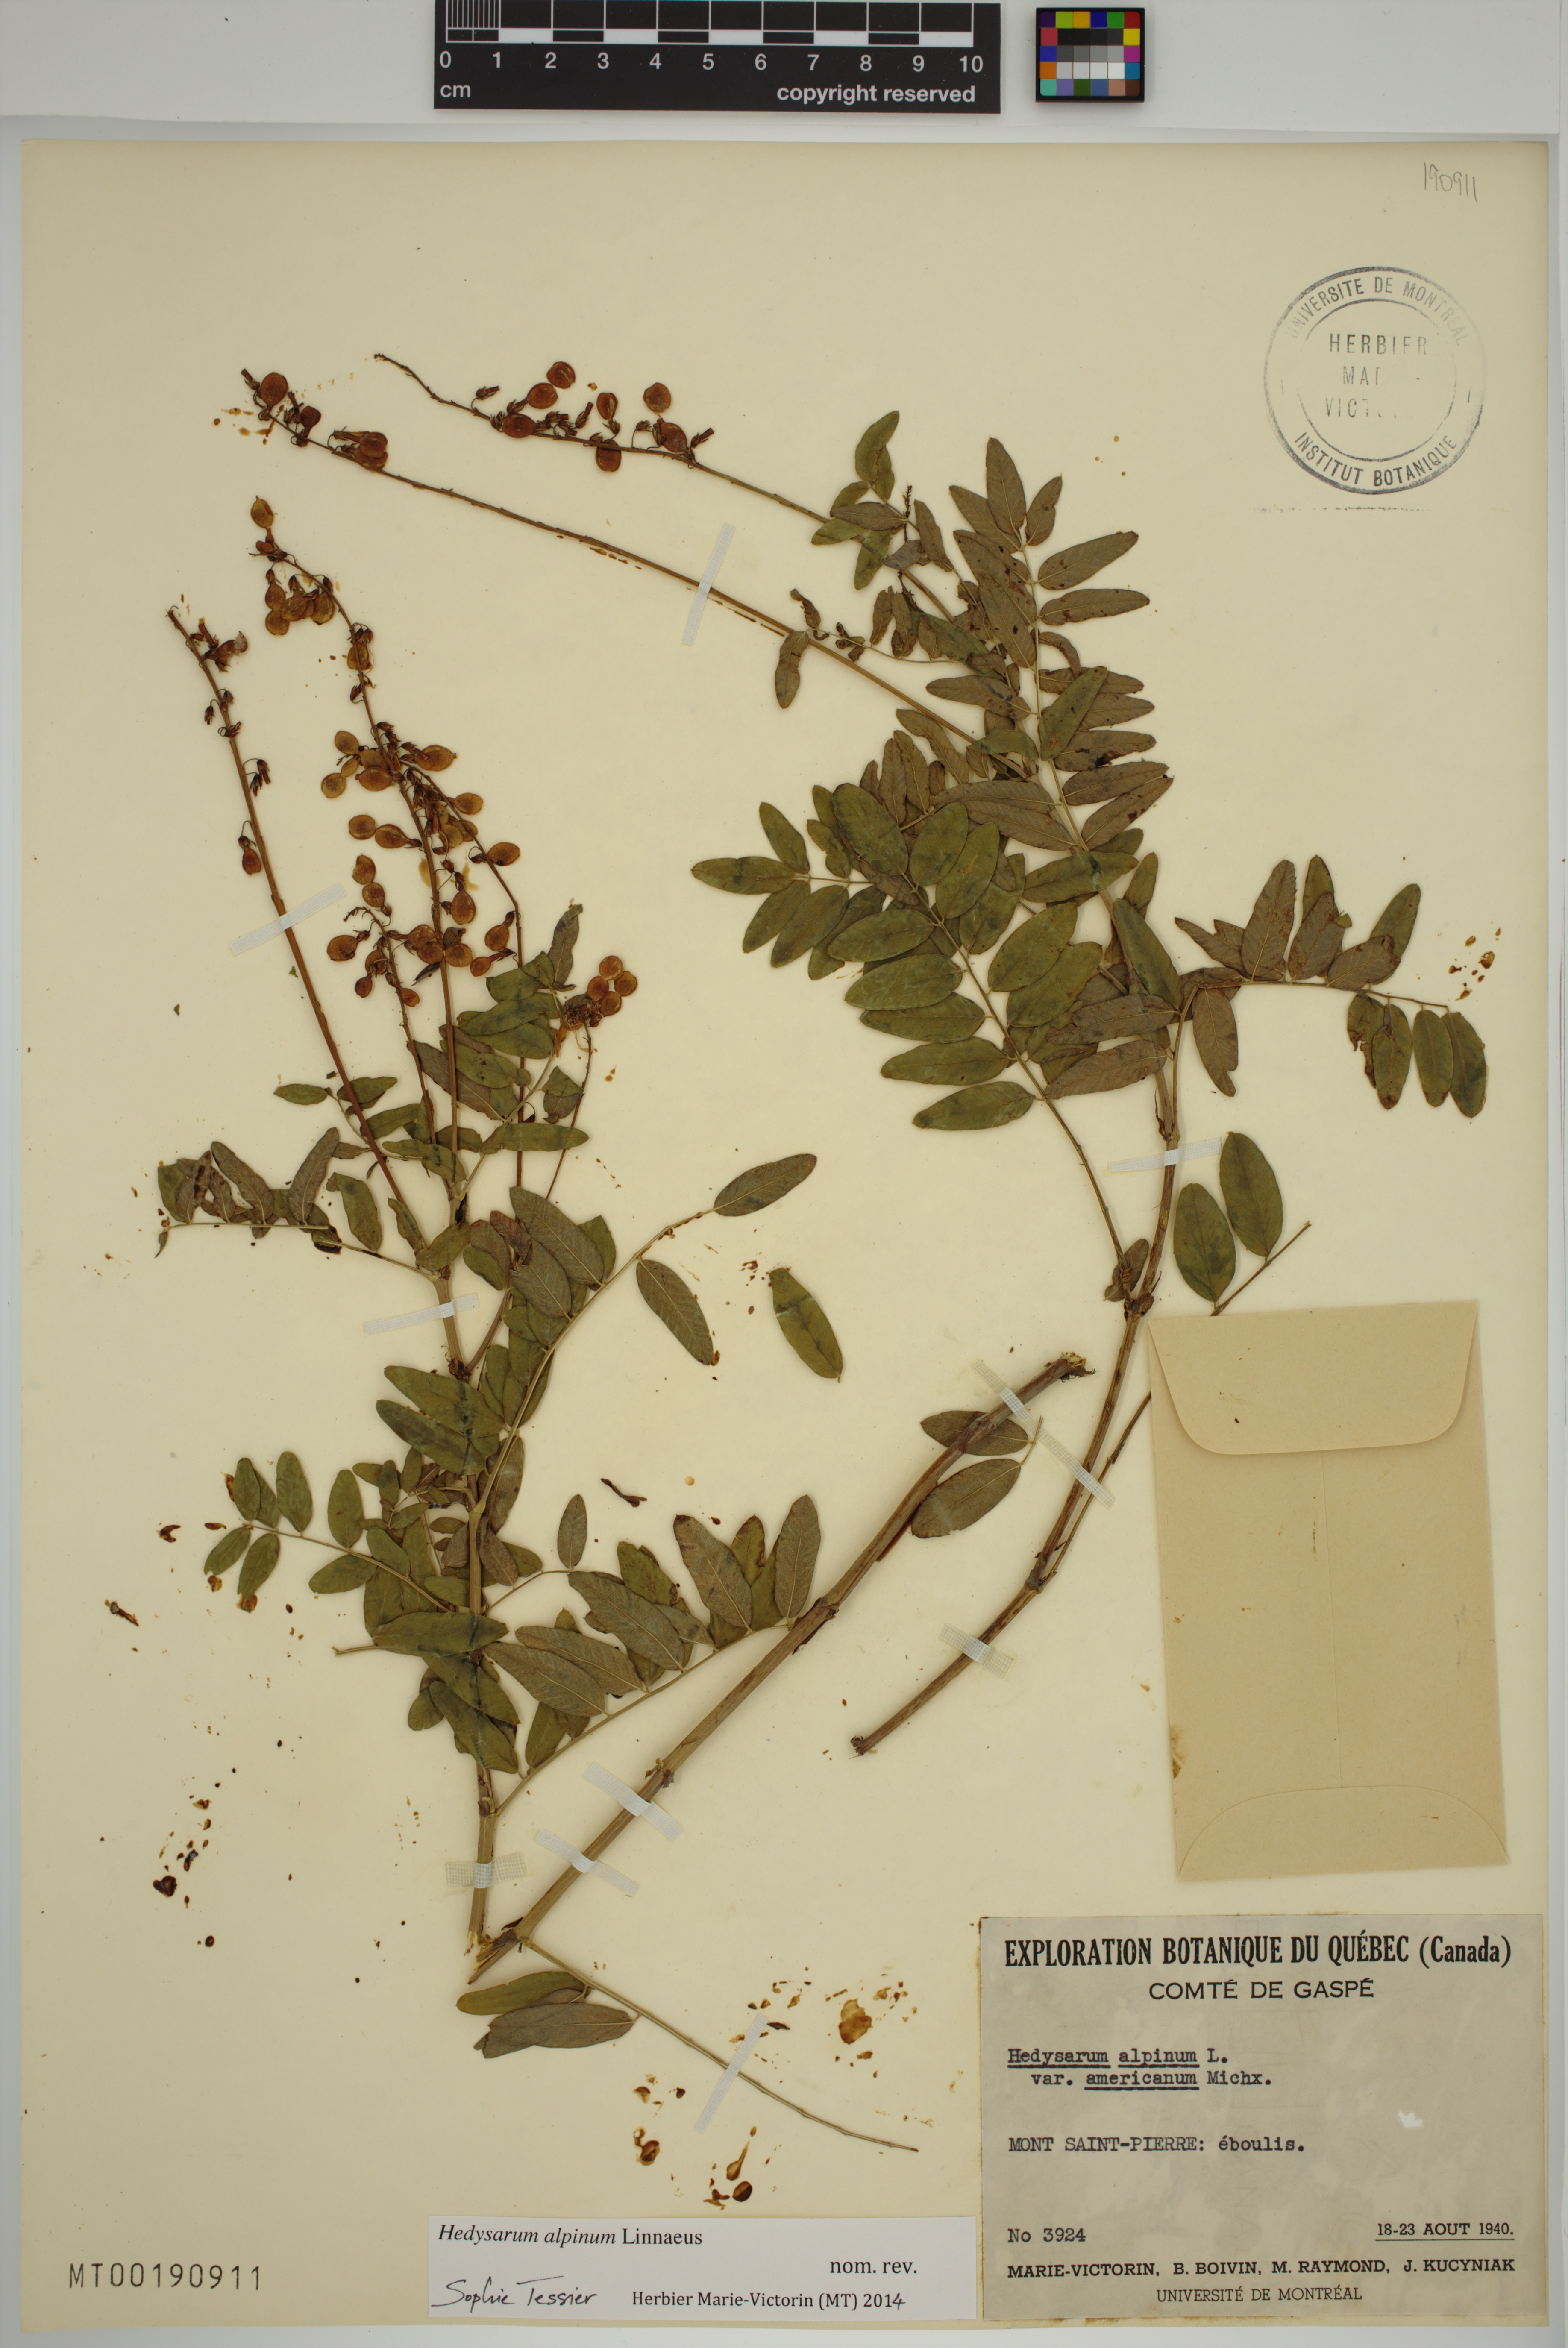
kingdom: Plantae
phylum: Tracheophyta
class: Magnoliopsida
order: Fabales
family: Fabaceae
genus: Hedysarum
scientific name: Hedysarum alpinum
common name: Alpine sweet-vetch
